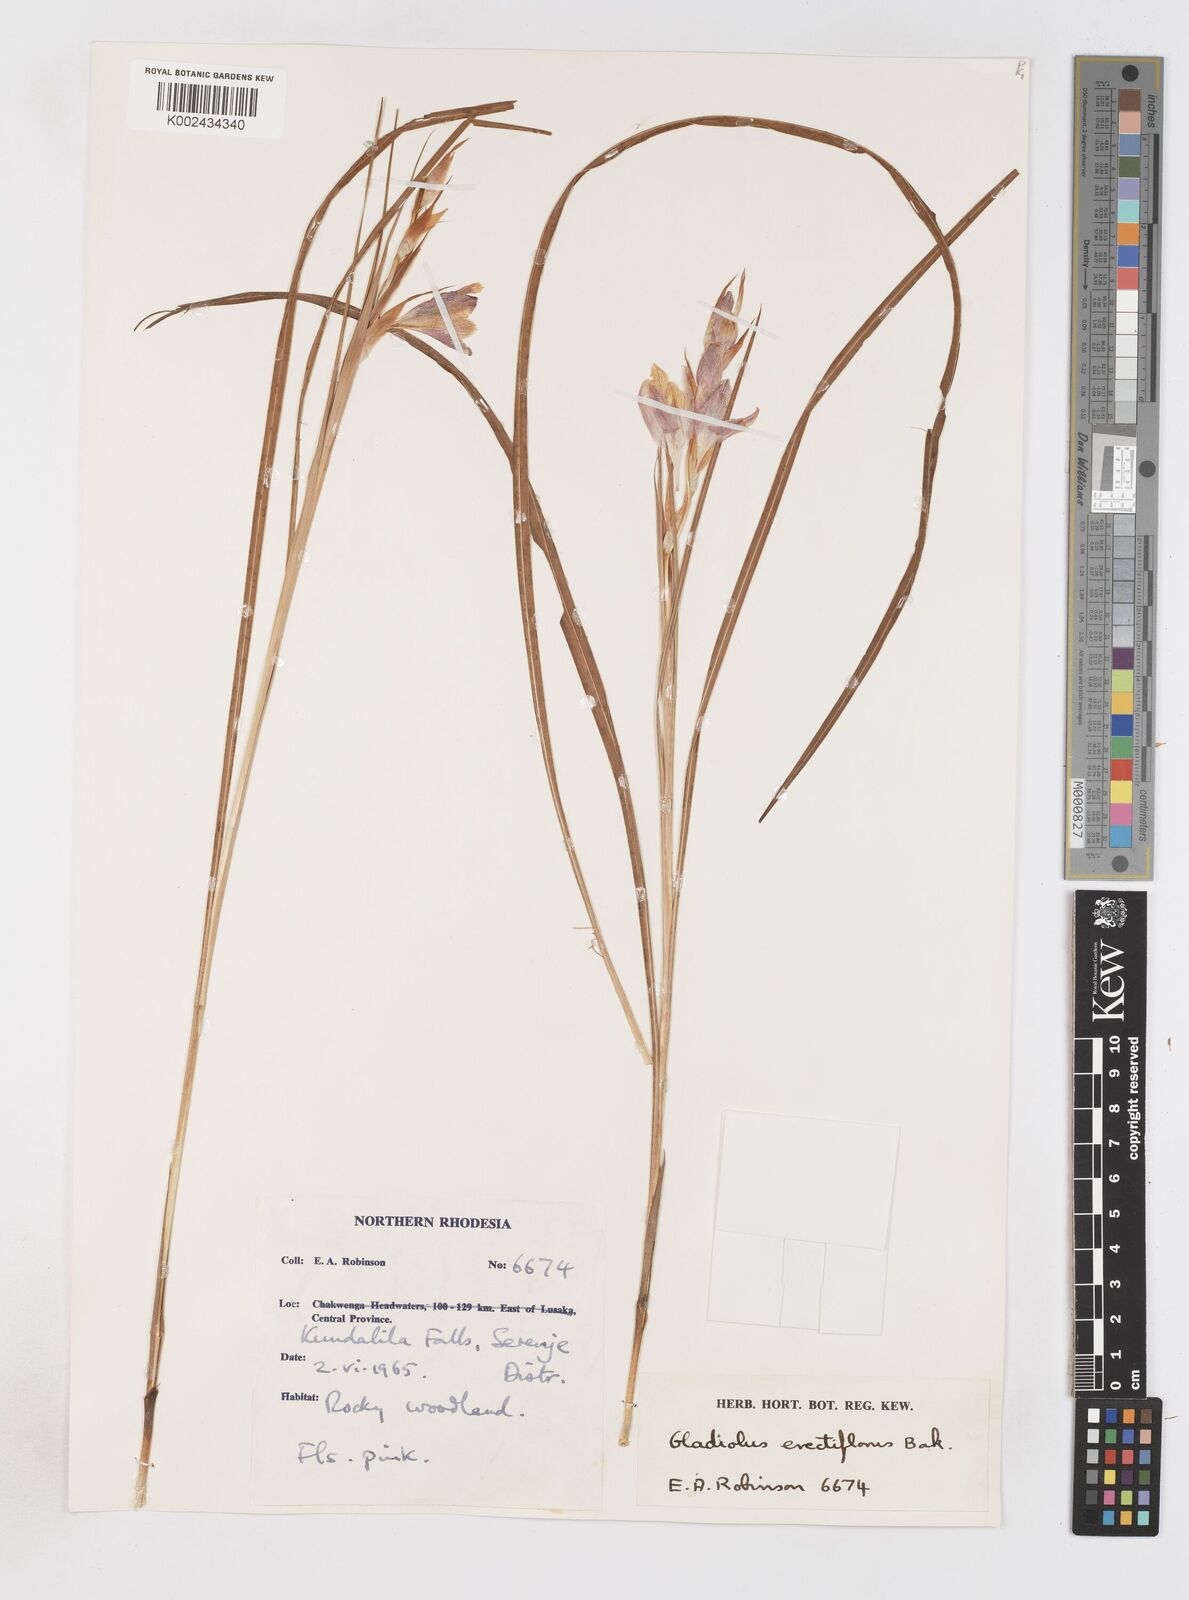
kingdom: Plantae
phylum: Tracheophyta
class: Liliopsida
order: Asparagales
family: Iridaceae
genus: Gladiolus
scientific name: Gladiolus erectiflorus
